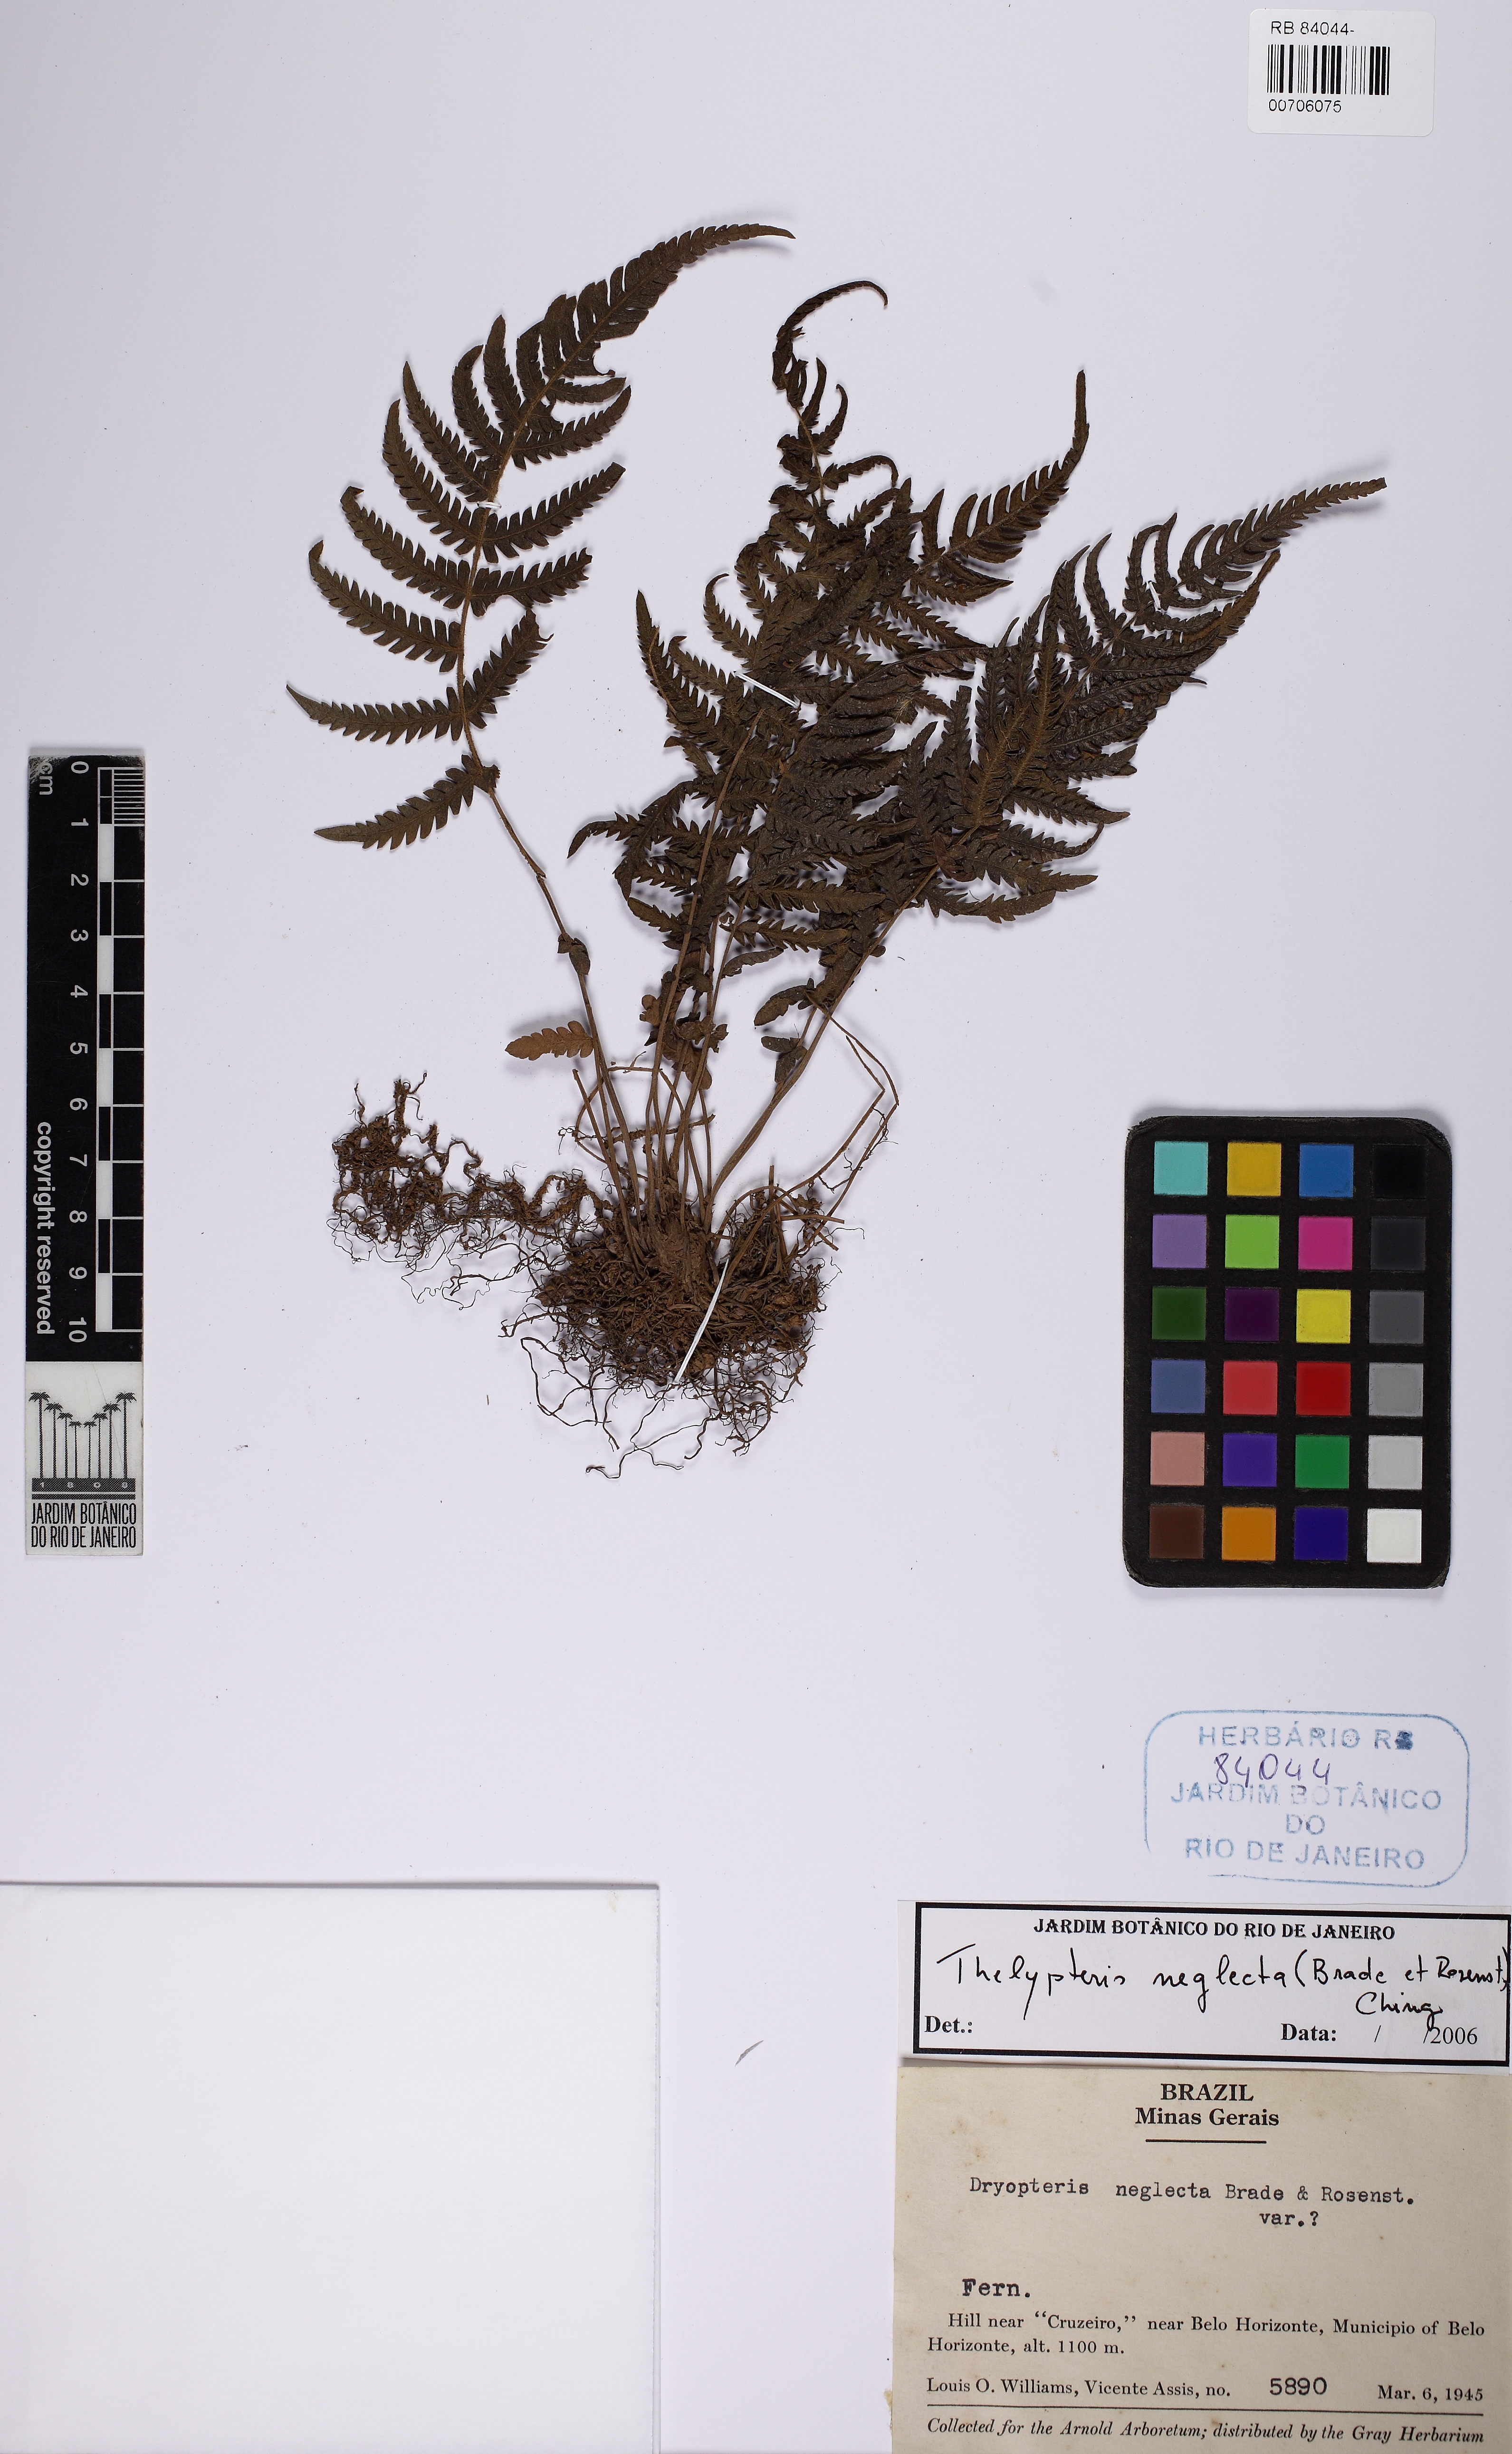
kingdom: Plantae
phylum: Tracheophyta
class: Polypodiopsida
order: Polypodiales
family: Thelypteridaceae
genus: Amauropelta
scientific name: Amauropelta neglecta
